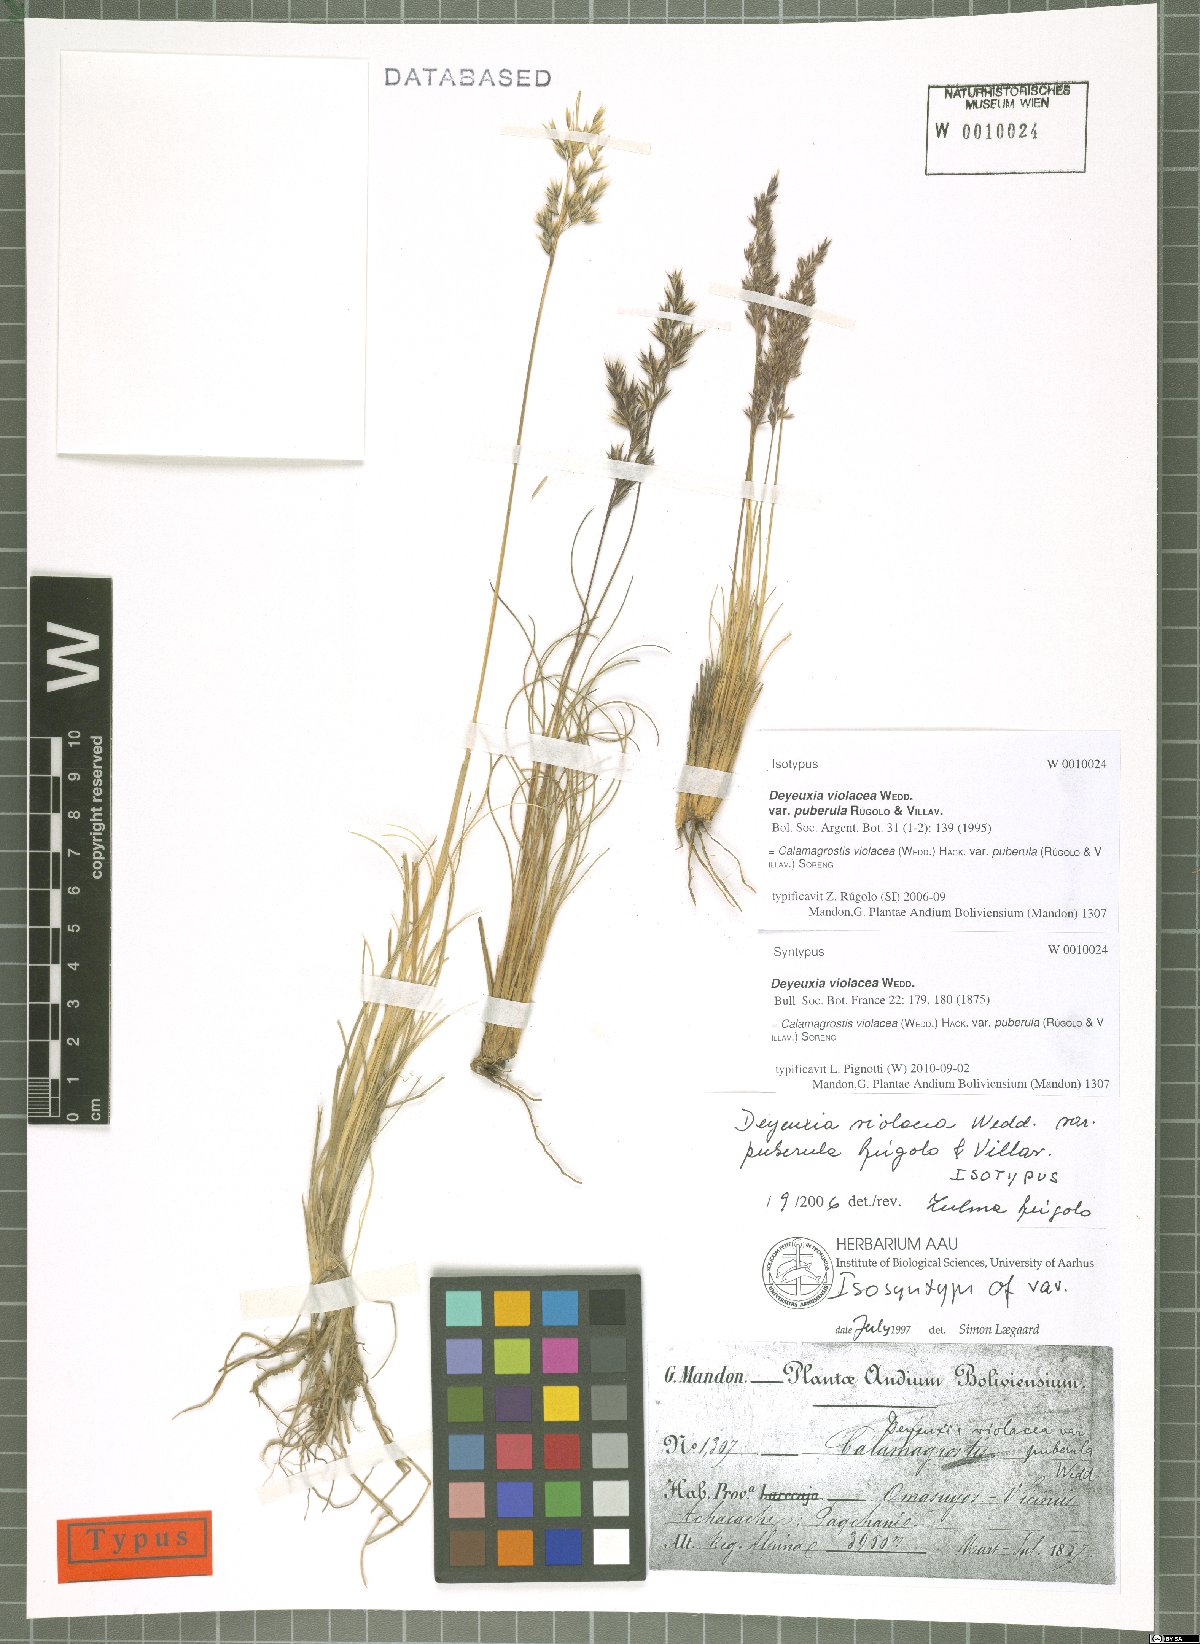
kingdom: Plantae
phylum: Tracheophyta
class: Liliopsida
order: Poales
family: Poaceae
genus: Cinnagrostis
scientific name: Cinnagrostis violacea
